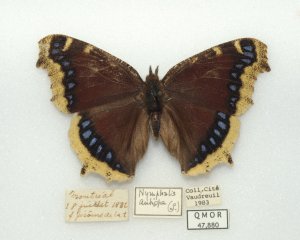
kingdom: Animalia
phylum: Arthropoda
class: Insecta
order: Lepidoptera
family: Nymphalidae
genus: Nymphalis
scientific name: Nymphalis antiopa
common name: Mourning Cloak
